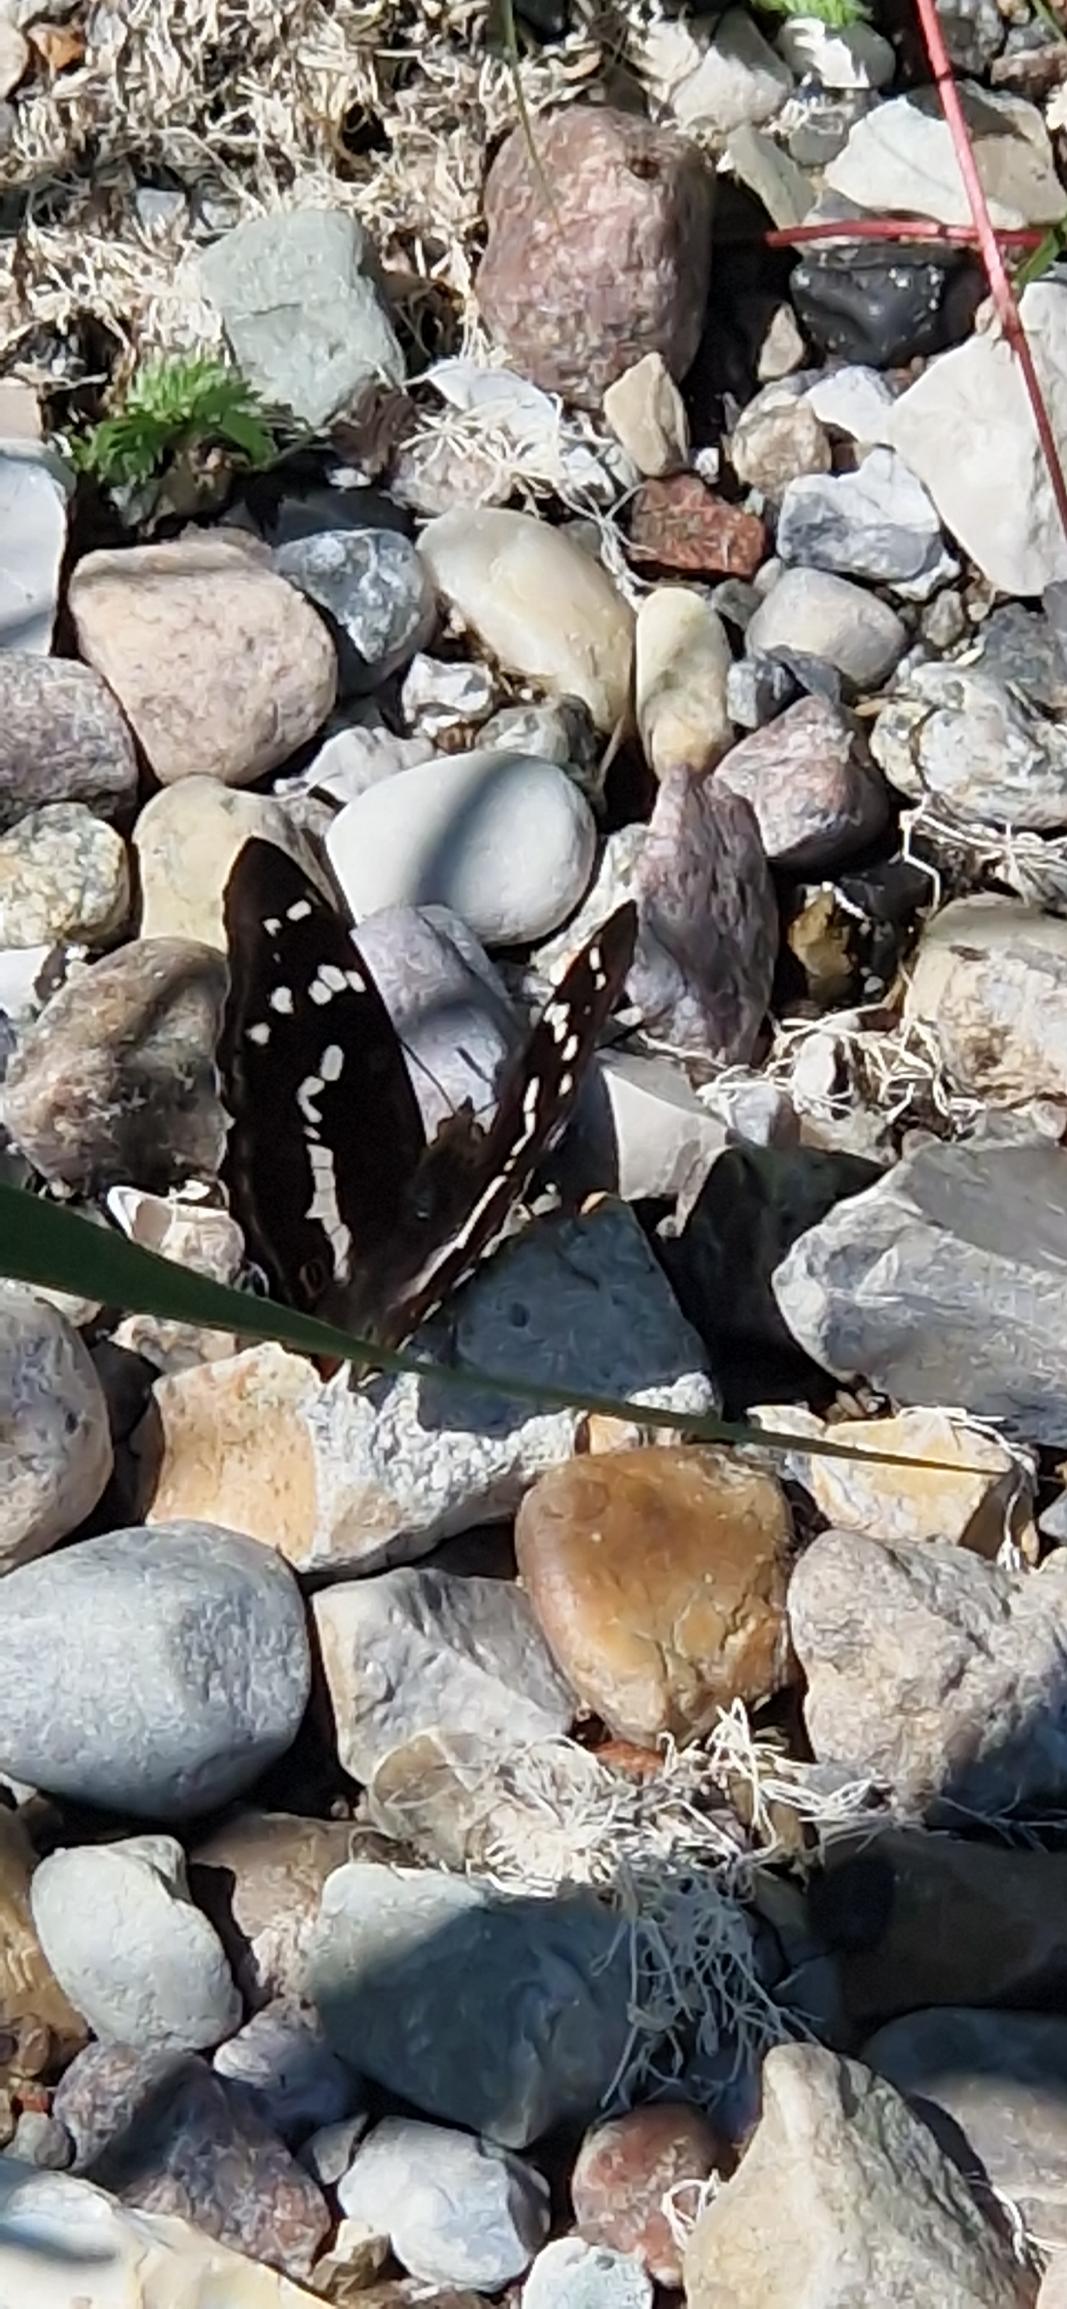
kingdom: Animalia
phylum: Arthropoda
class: Insecta
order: Lepidoptera
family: Nymphalidae
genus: Apatura
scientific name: Apatura iris
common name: Iris
